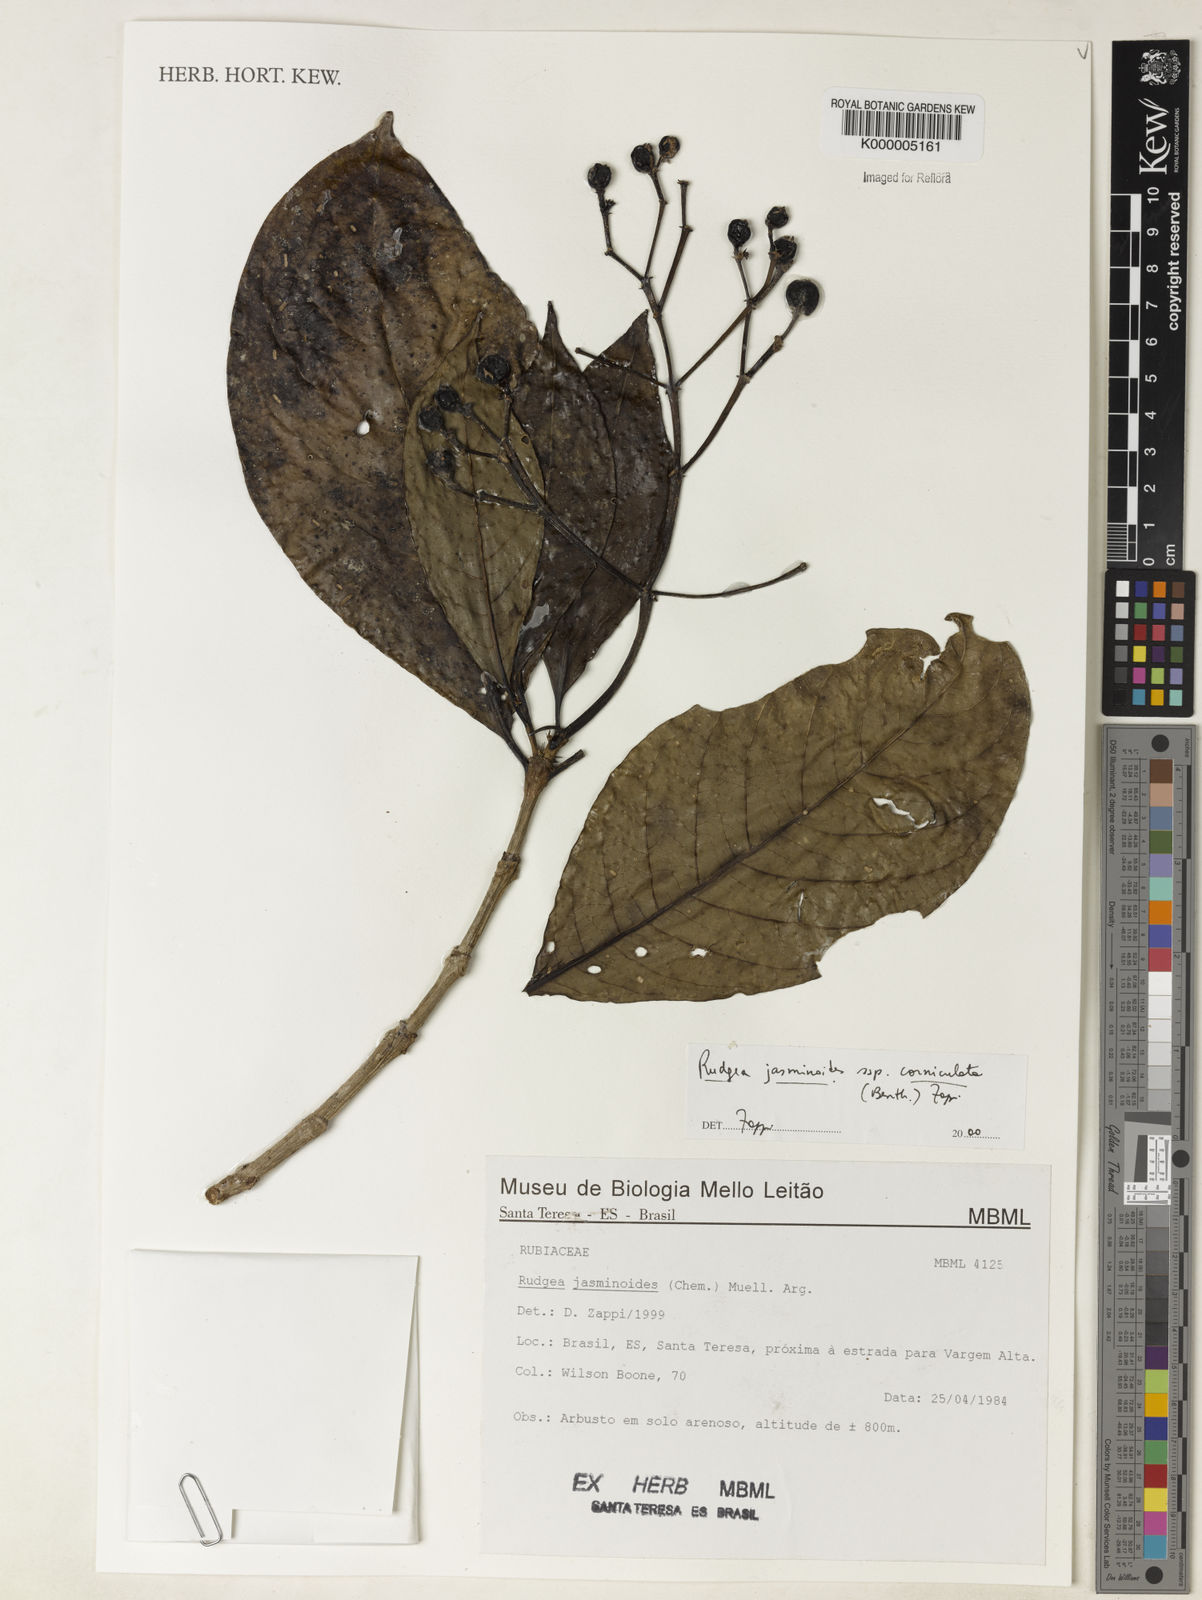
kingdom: Plantae
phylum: Tracheophyta
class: Magnoliopsida
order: Gentianales
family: Rubiaceae
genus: Rudgea
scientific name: Rudgea jasminoides
